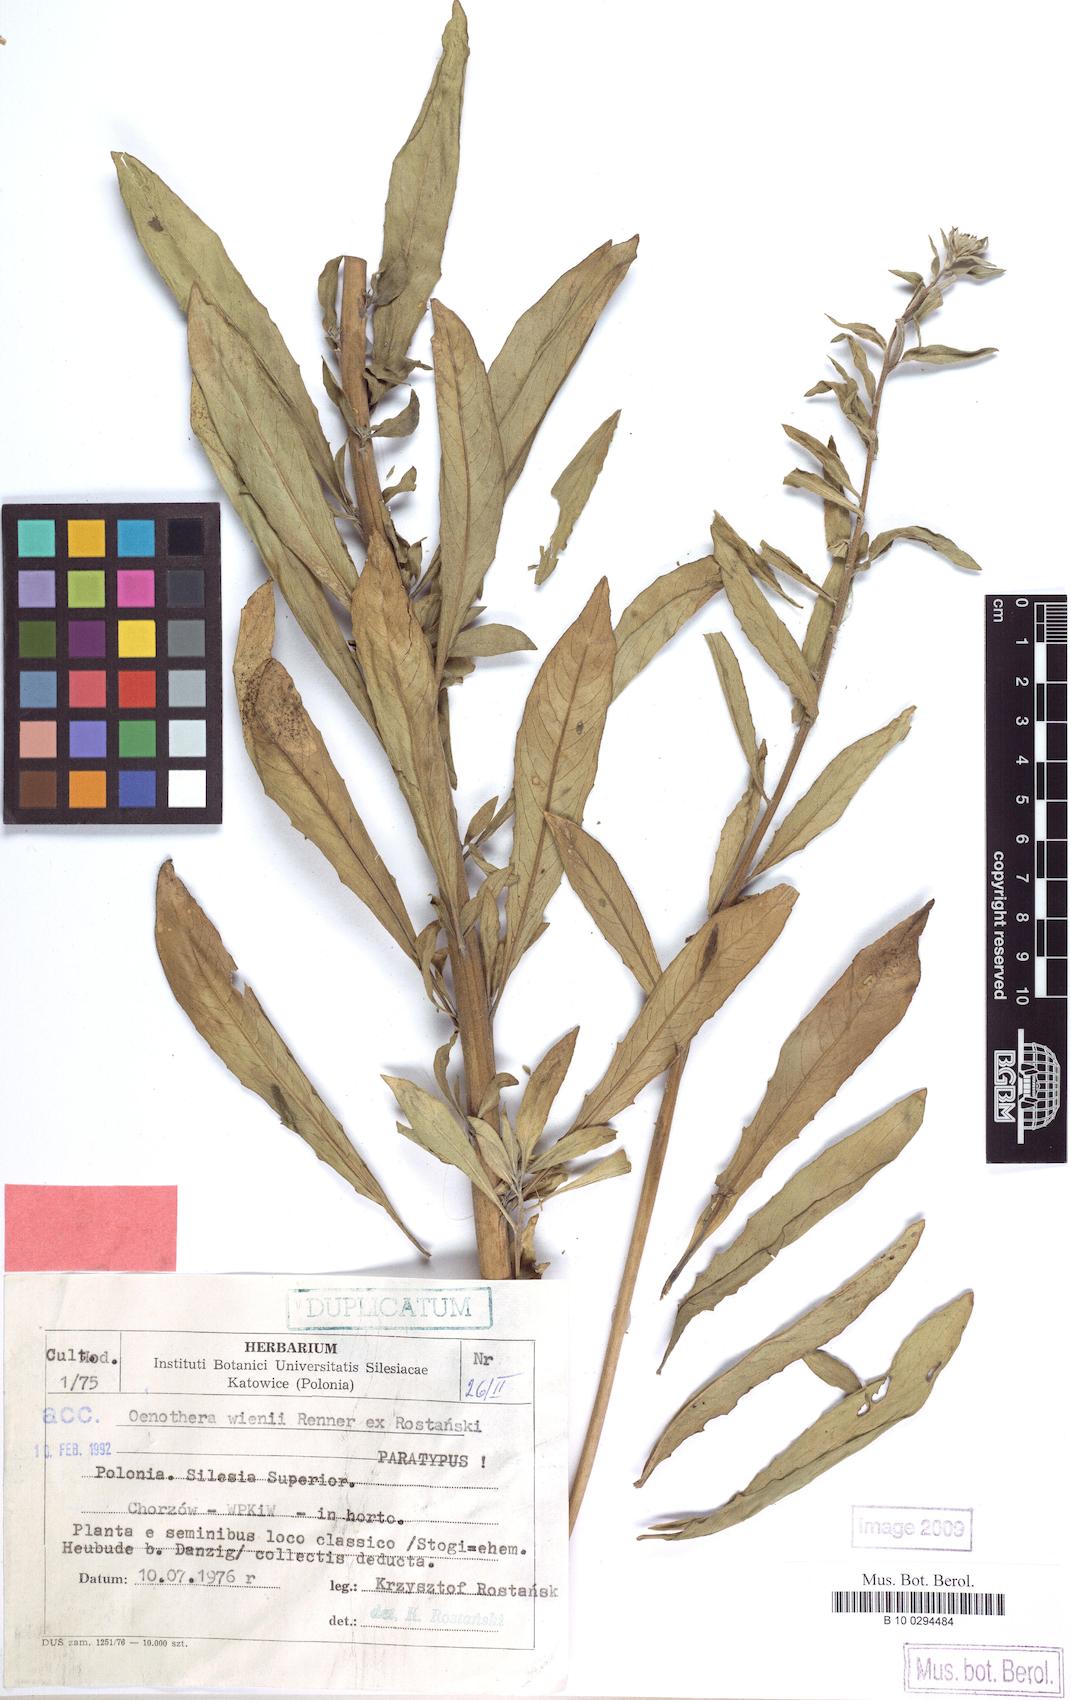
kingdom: Plantae
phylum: Tracheophyta
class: Magnoliopsida
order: Myrtales
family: Onagraceae
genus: Oenothera
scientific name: Oenothera wienii
